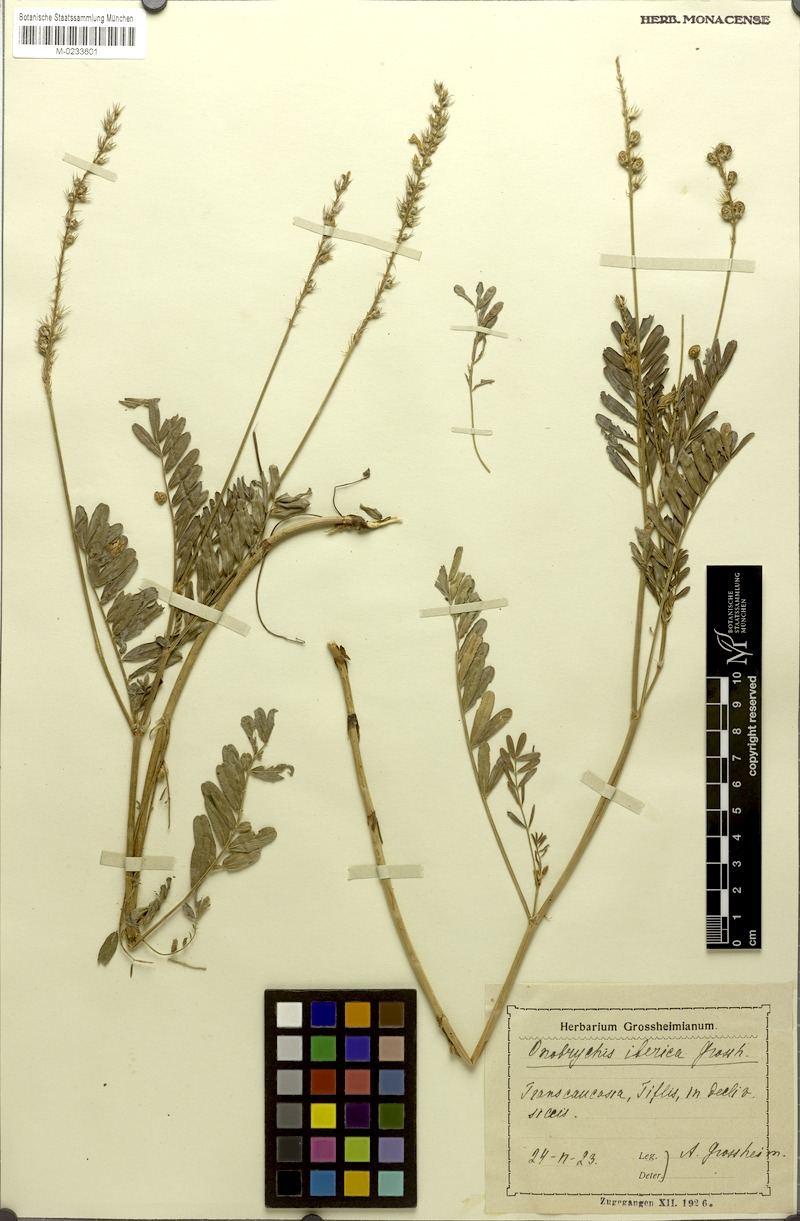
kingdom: Plantae
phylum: Tracheophyta
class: Magnoliopsida
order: Fabales
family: Fabaceae
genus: Onobrychis
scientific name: Onobrychis iberica
